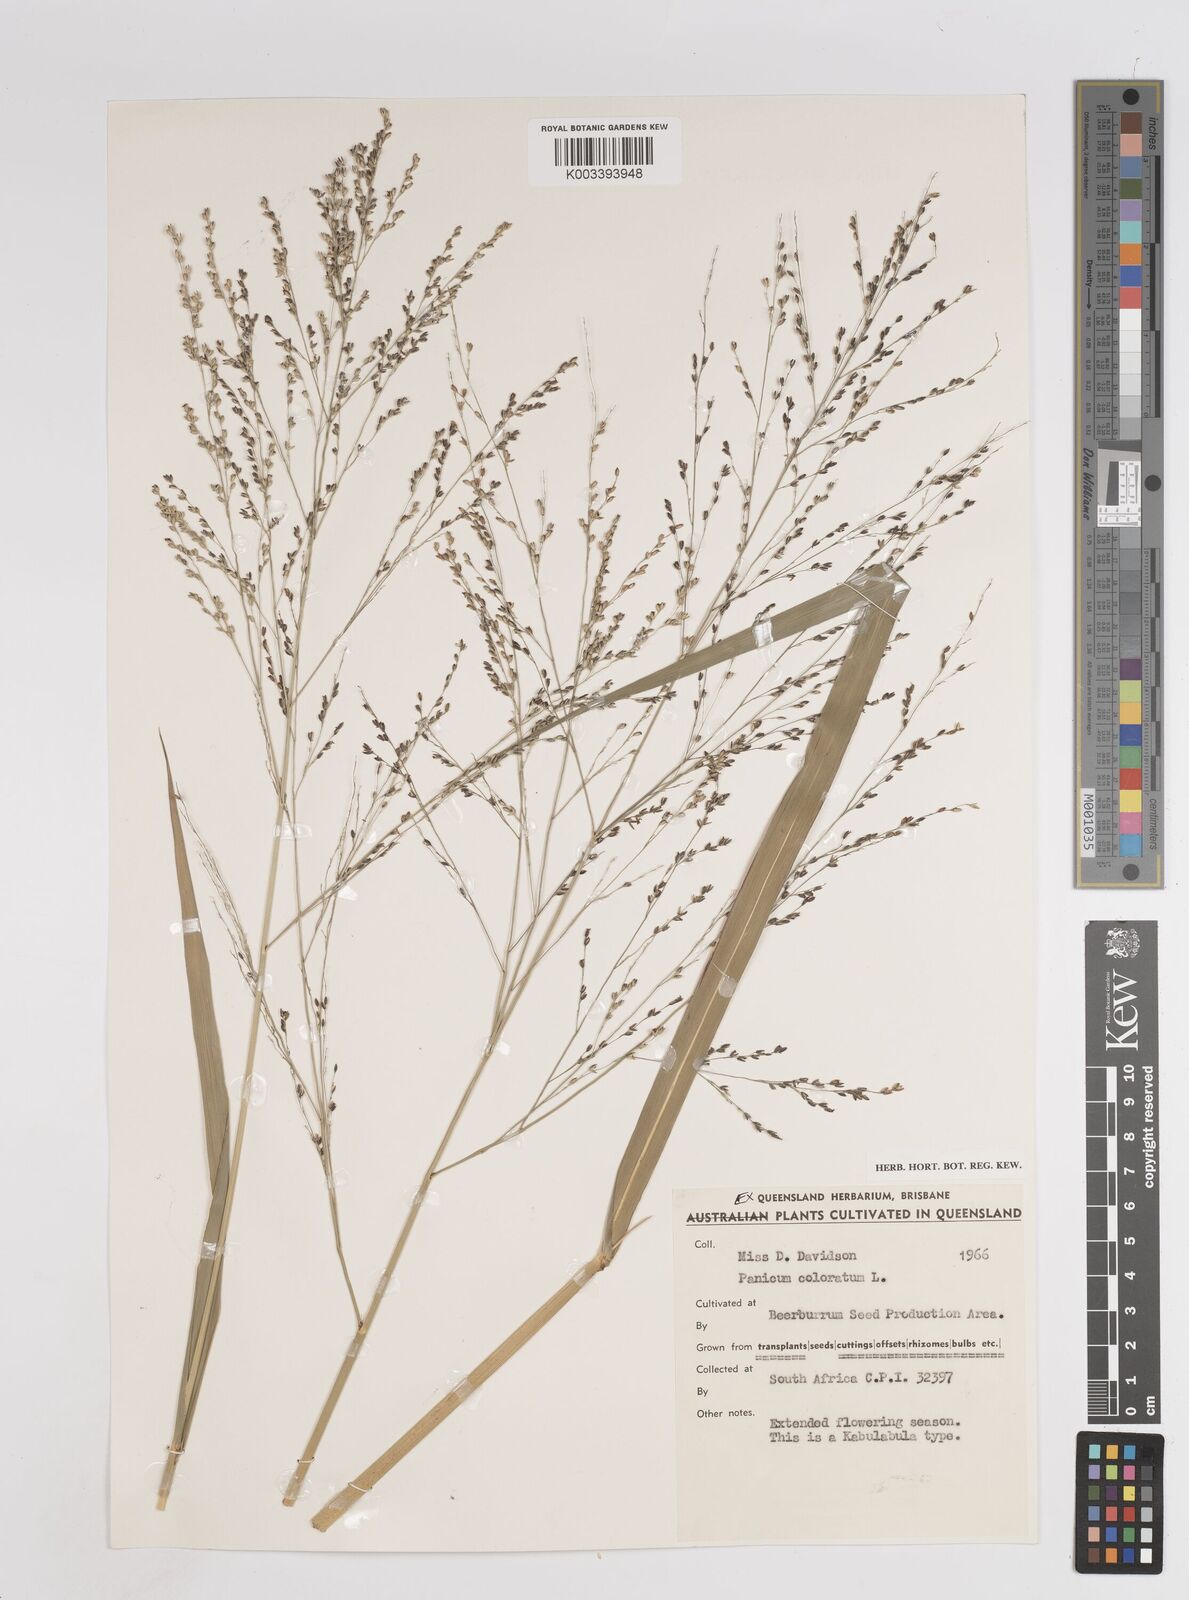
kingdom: Plantae
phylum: Tracheophyta
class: Liliopsida
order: Poales
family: Poaceae
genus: Panicum
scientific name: Panicum coloratum
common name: Kleingrass
